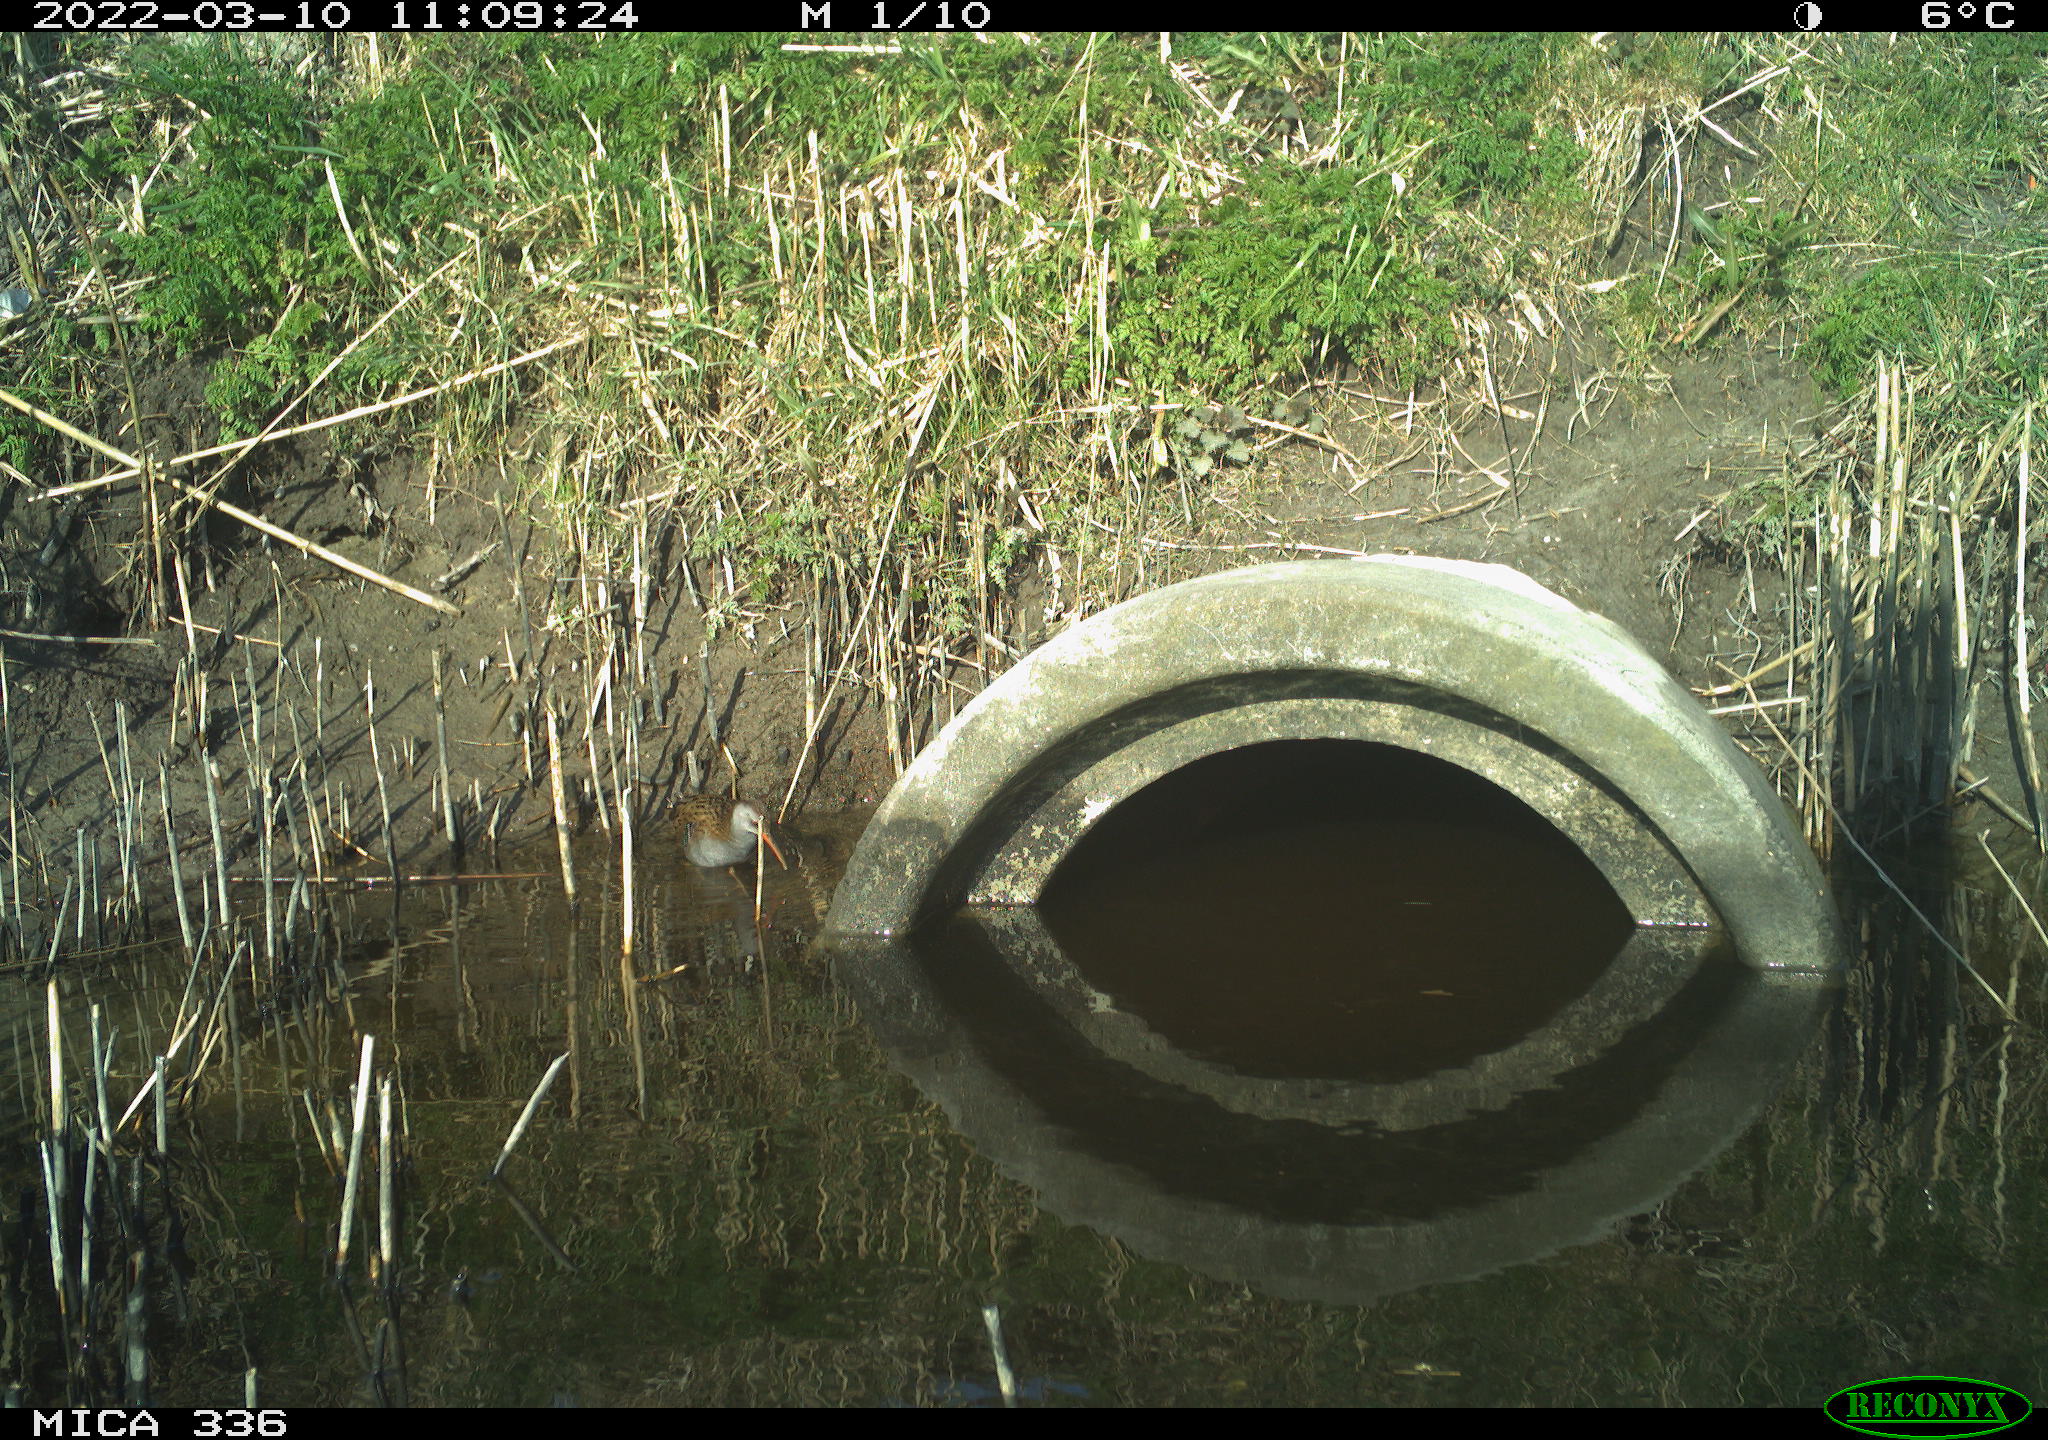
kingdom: Animalia
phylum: Chordata
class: Aves
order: Gruiformes
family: Rallidae
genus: Rallus
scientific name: Rallus aquaticus
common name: Water rail
